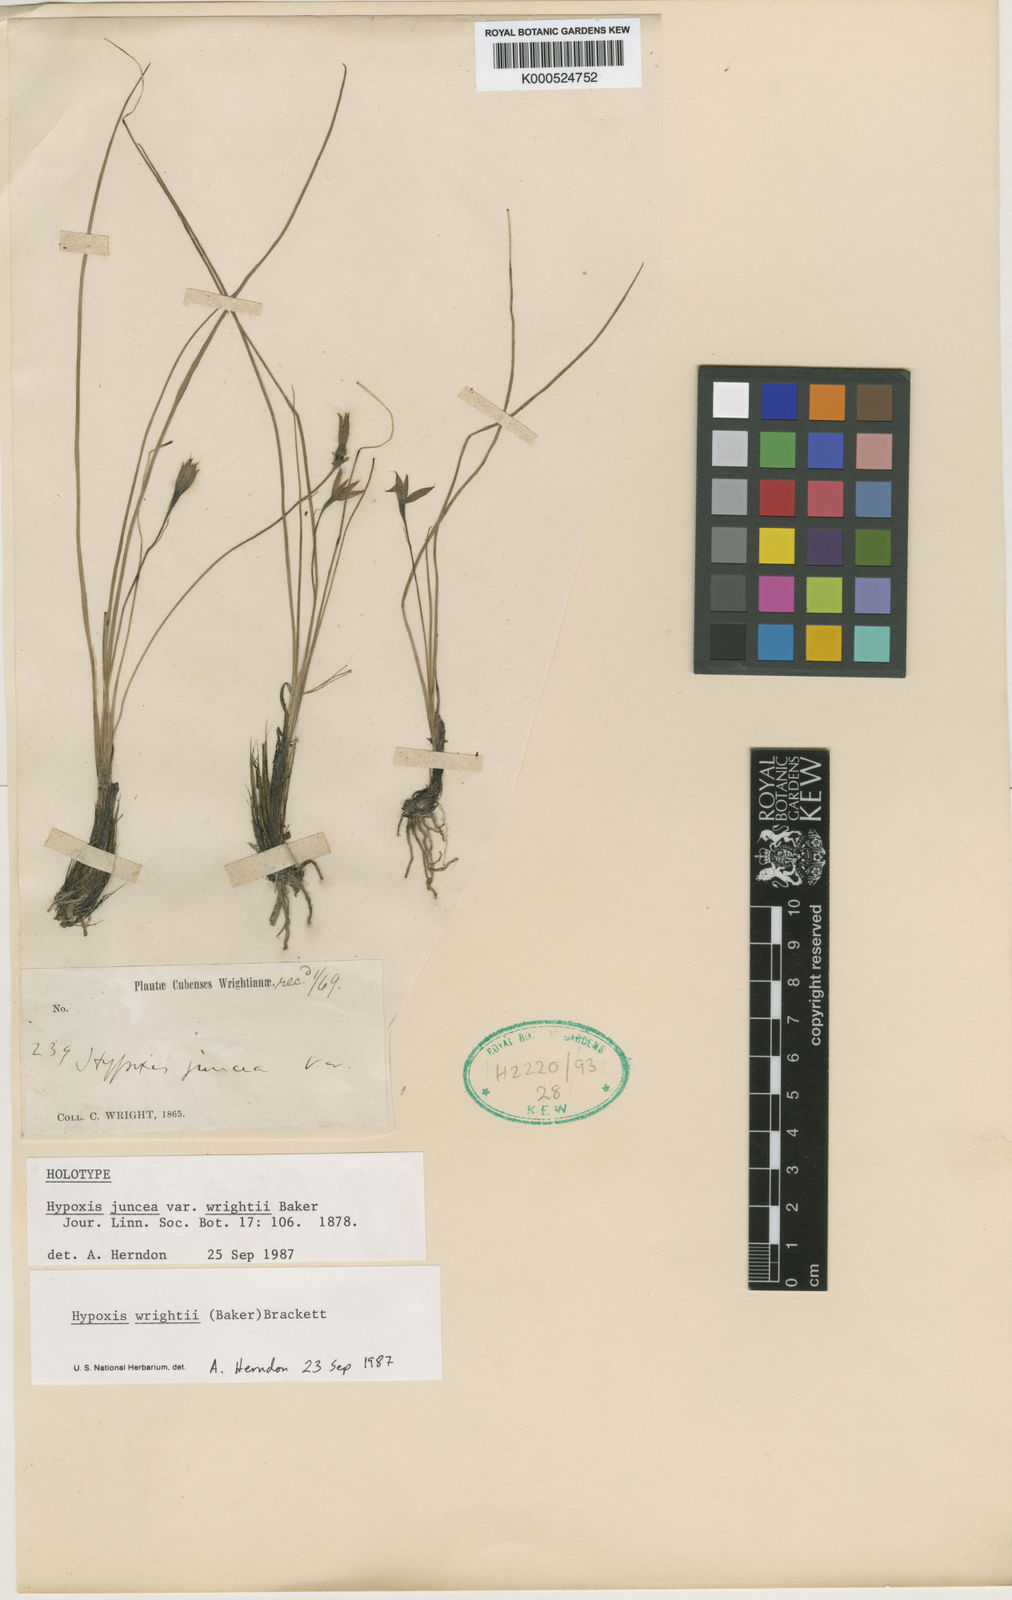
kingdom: Plantae
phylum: Tracheophyta
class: Liliopsida
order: Asparagales
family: Hypoxidaceae
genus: Hypoxis
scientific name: Hypoxis wrightii
